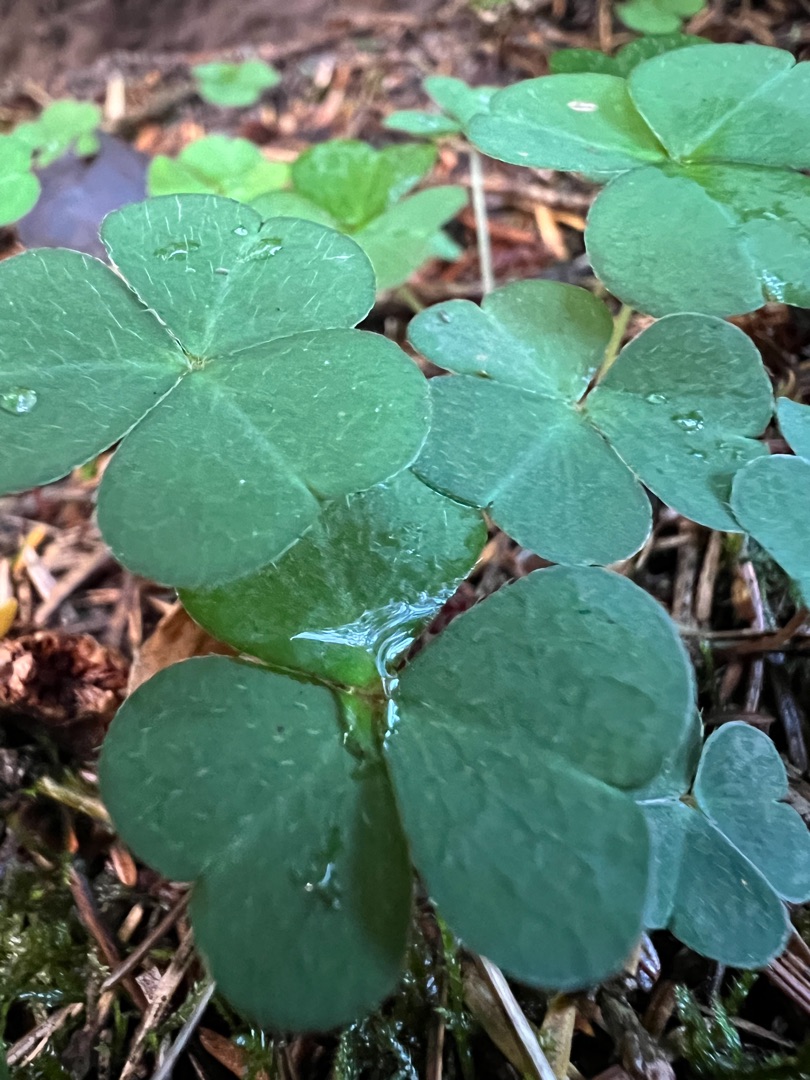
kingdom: Plantae
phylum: Tracheophyta
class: Magnoliopsida
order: Oxalidales
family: Oxalidaceae
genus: Oxalis
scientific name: Oxalis acetosella
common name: Skovsyre
